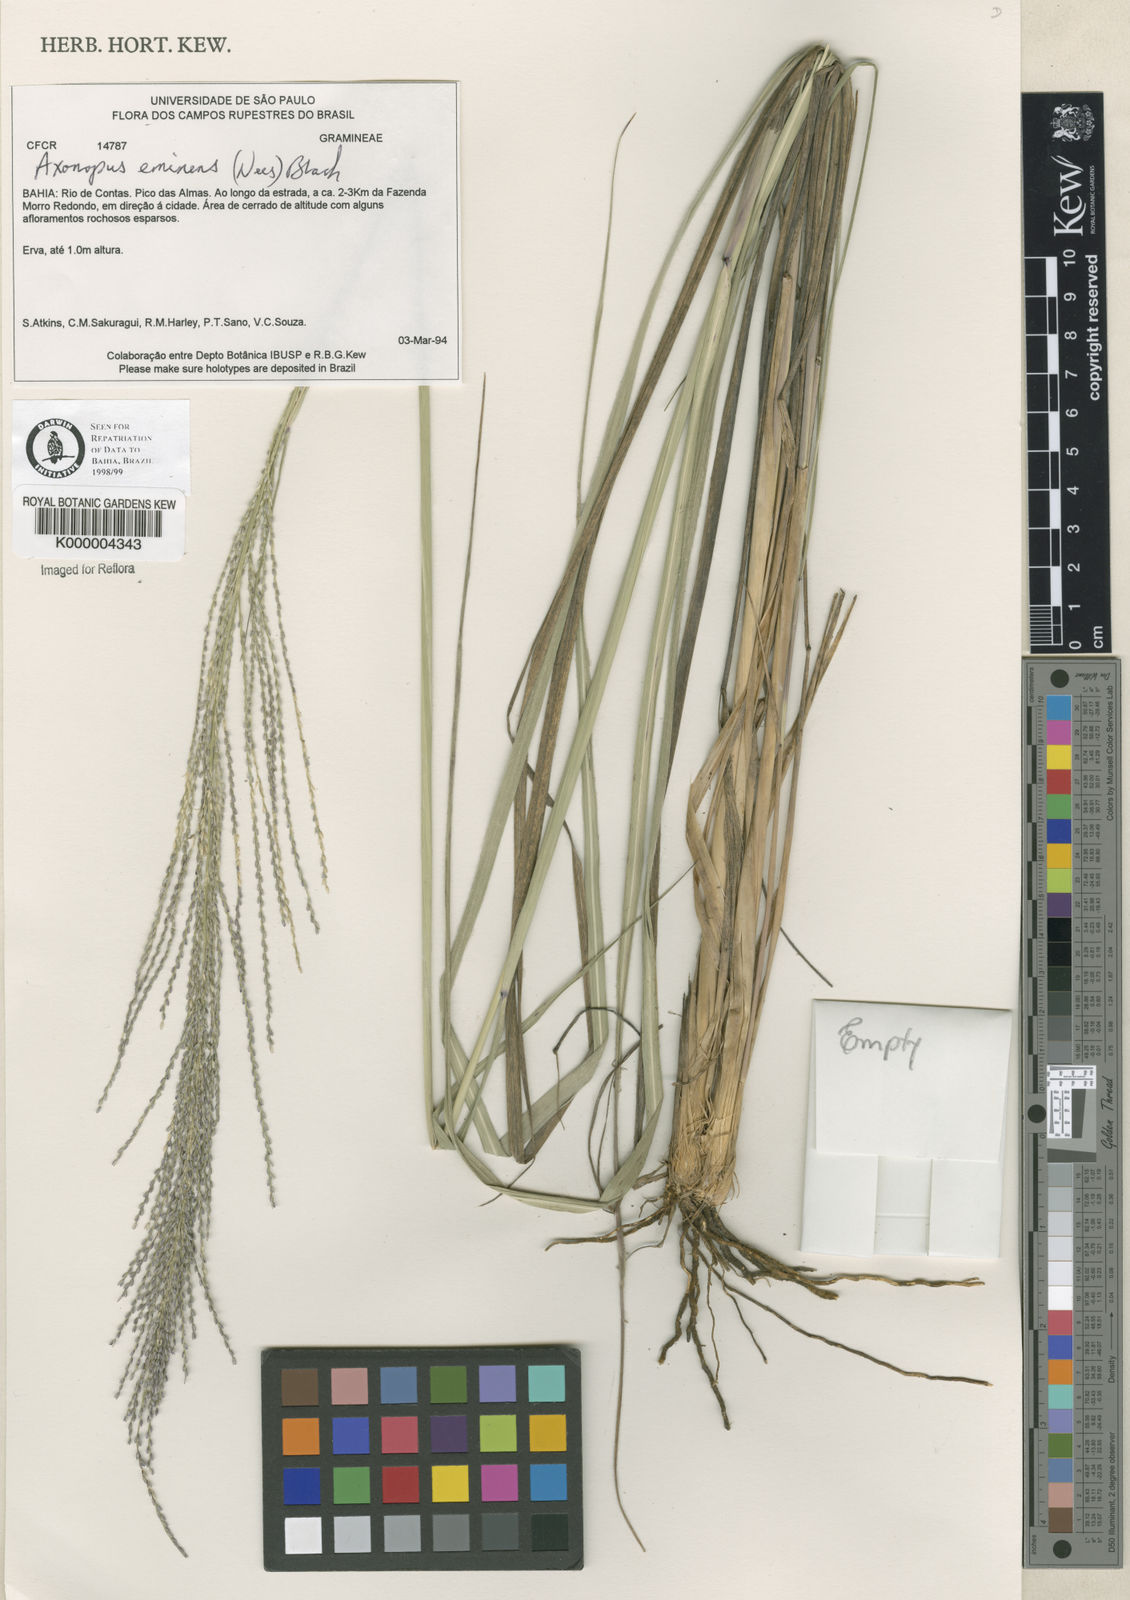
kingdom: Plantae
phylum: Tracheophyta
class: Liliopsida
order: Poales
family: Poaceae
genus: Axonopus
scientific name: Axonopus eminens
